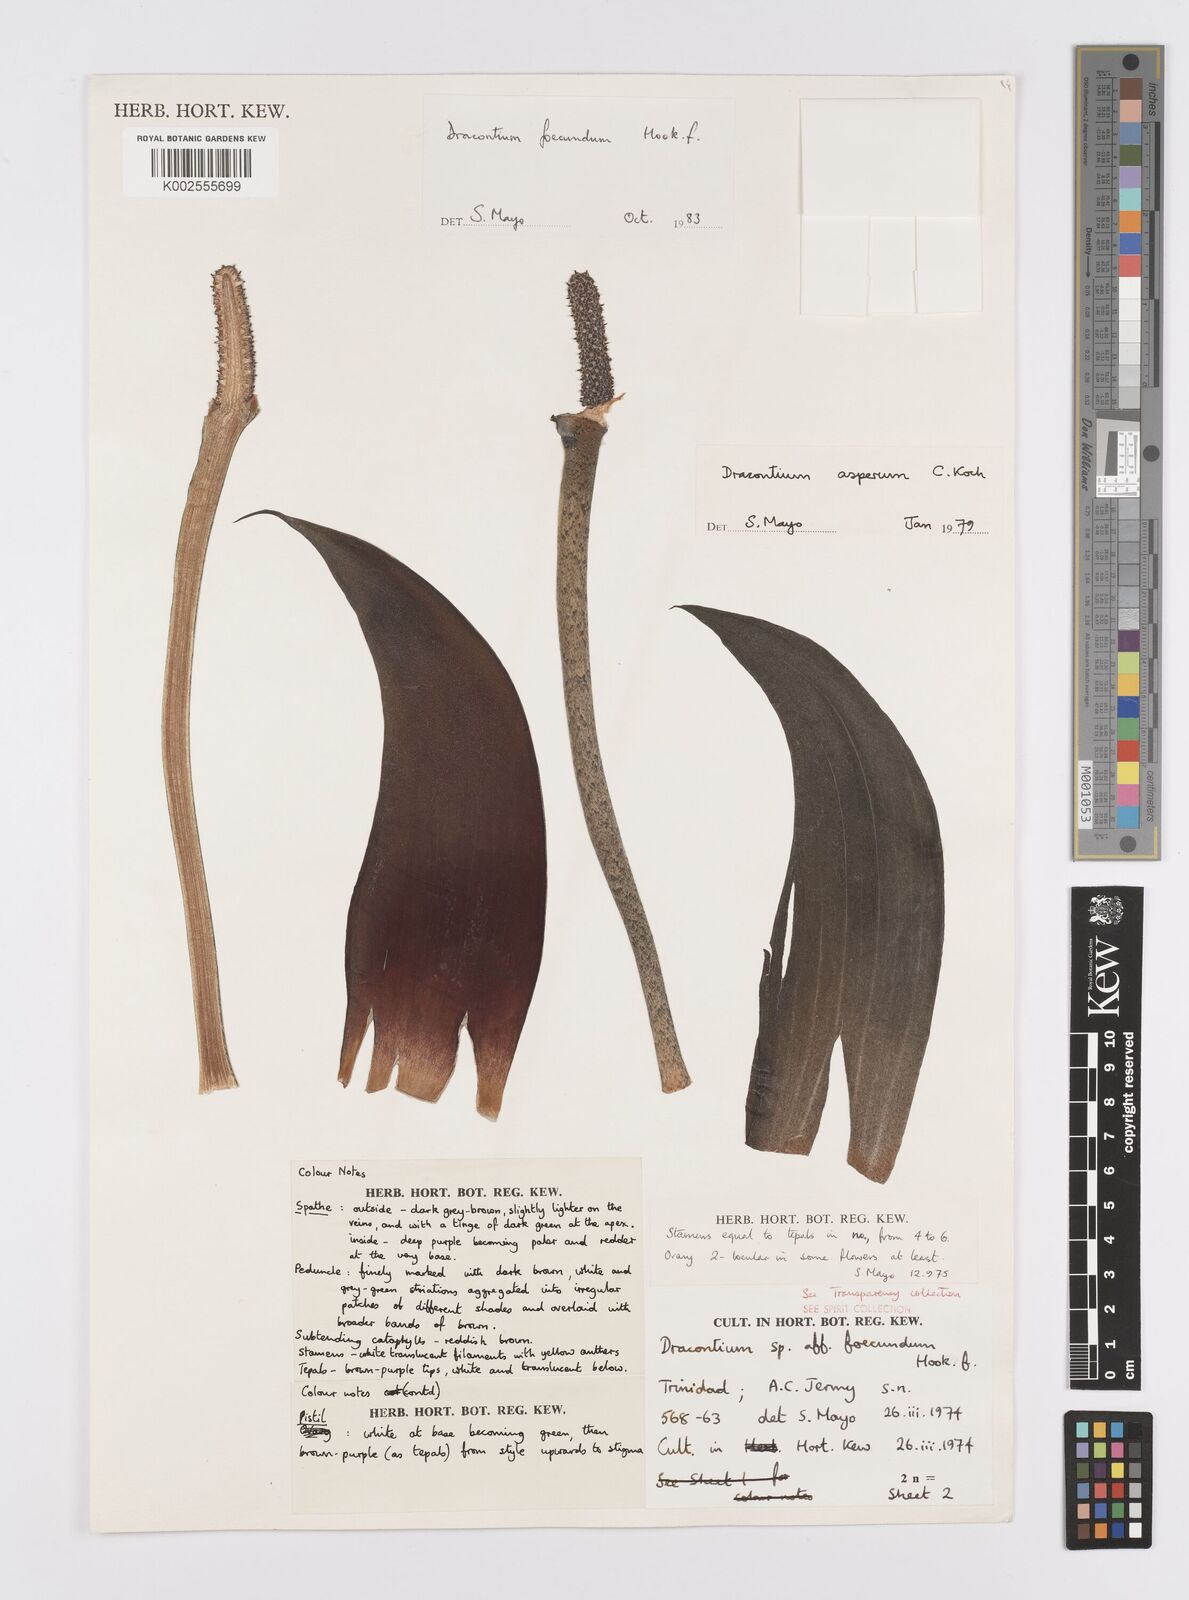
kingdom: Plantae
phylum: Tracheophyta
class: Liliopsida
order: Alismatales
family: Araceae
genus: Dracontium
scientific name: Dracontium gigas
